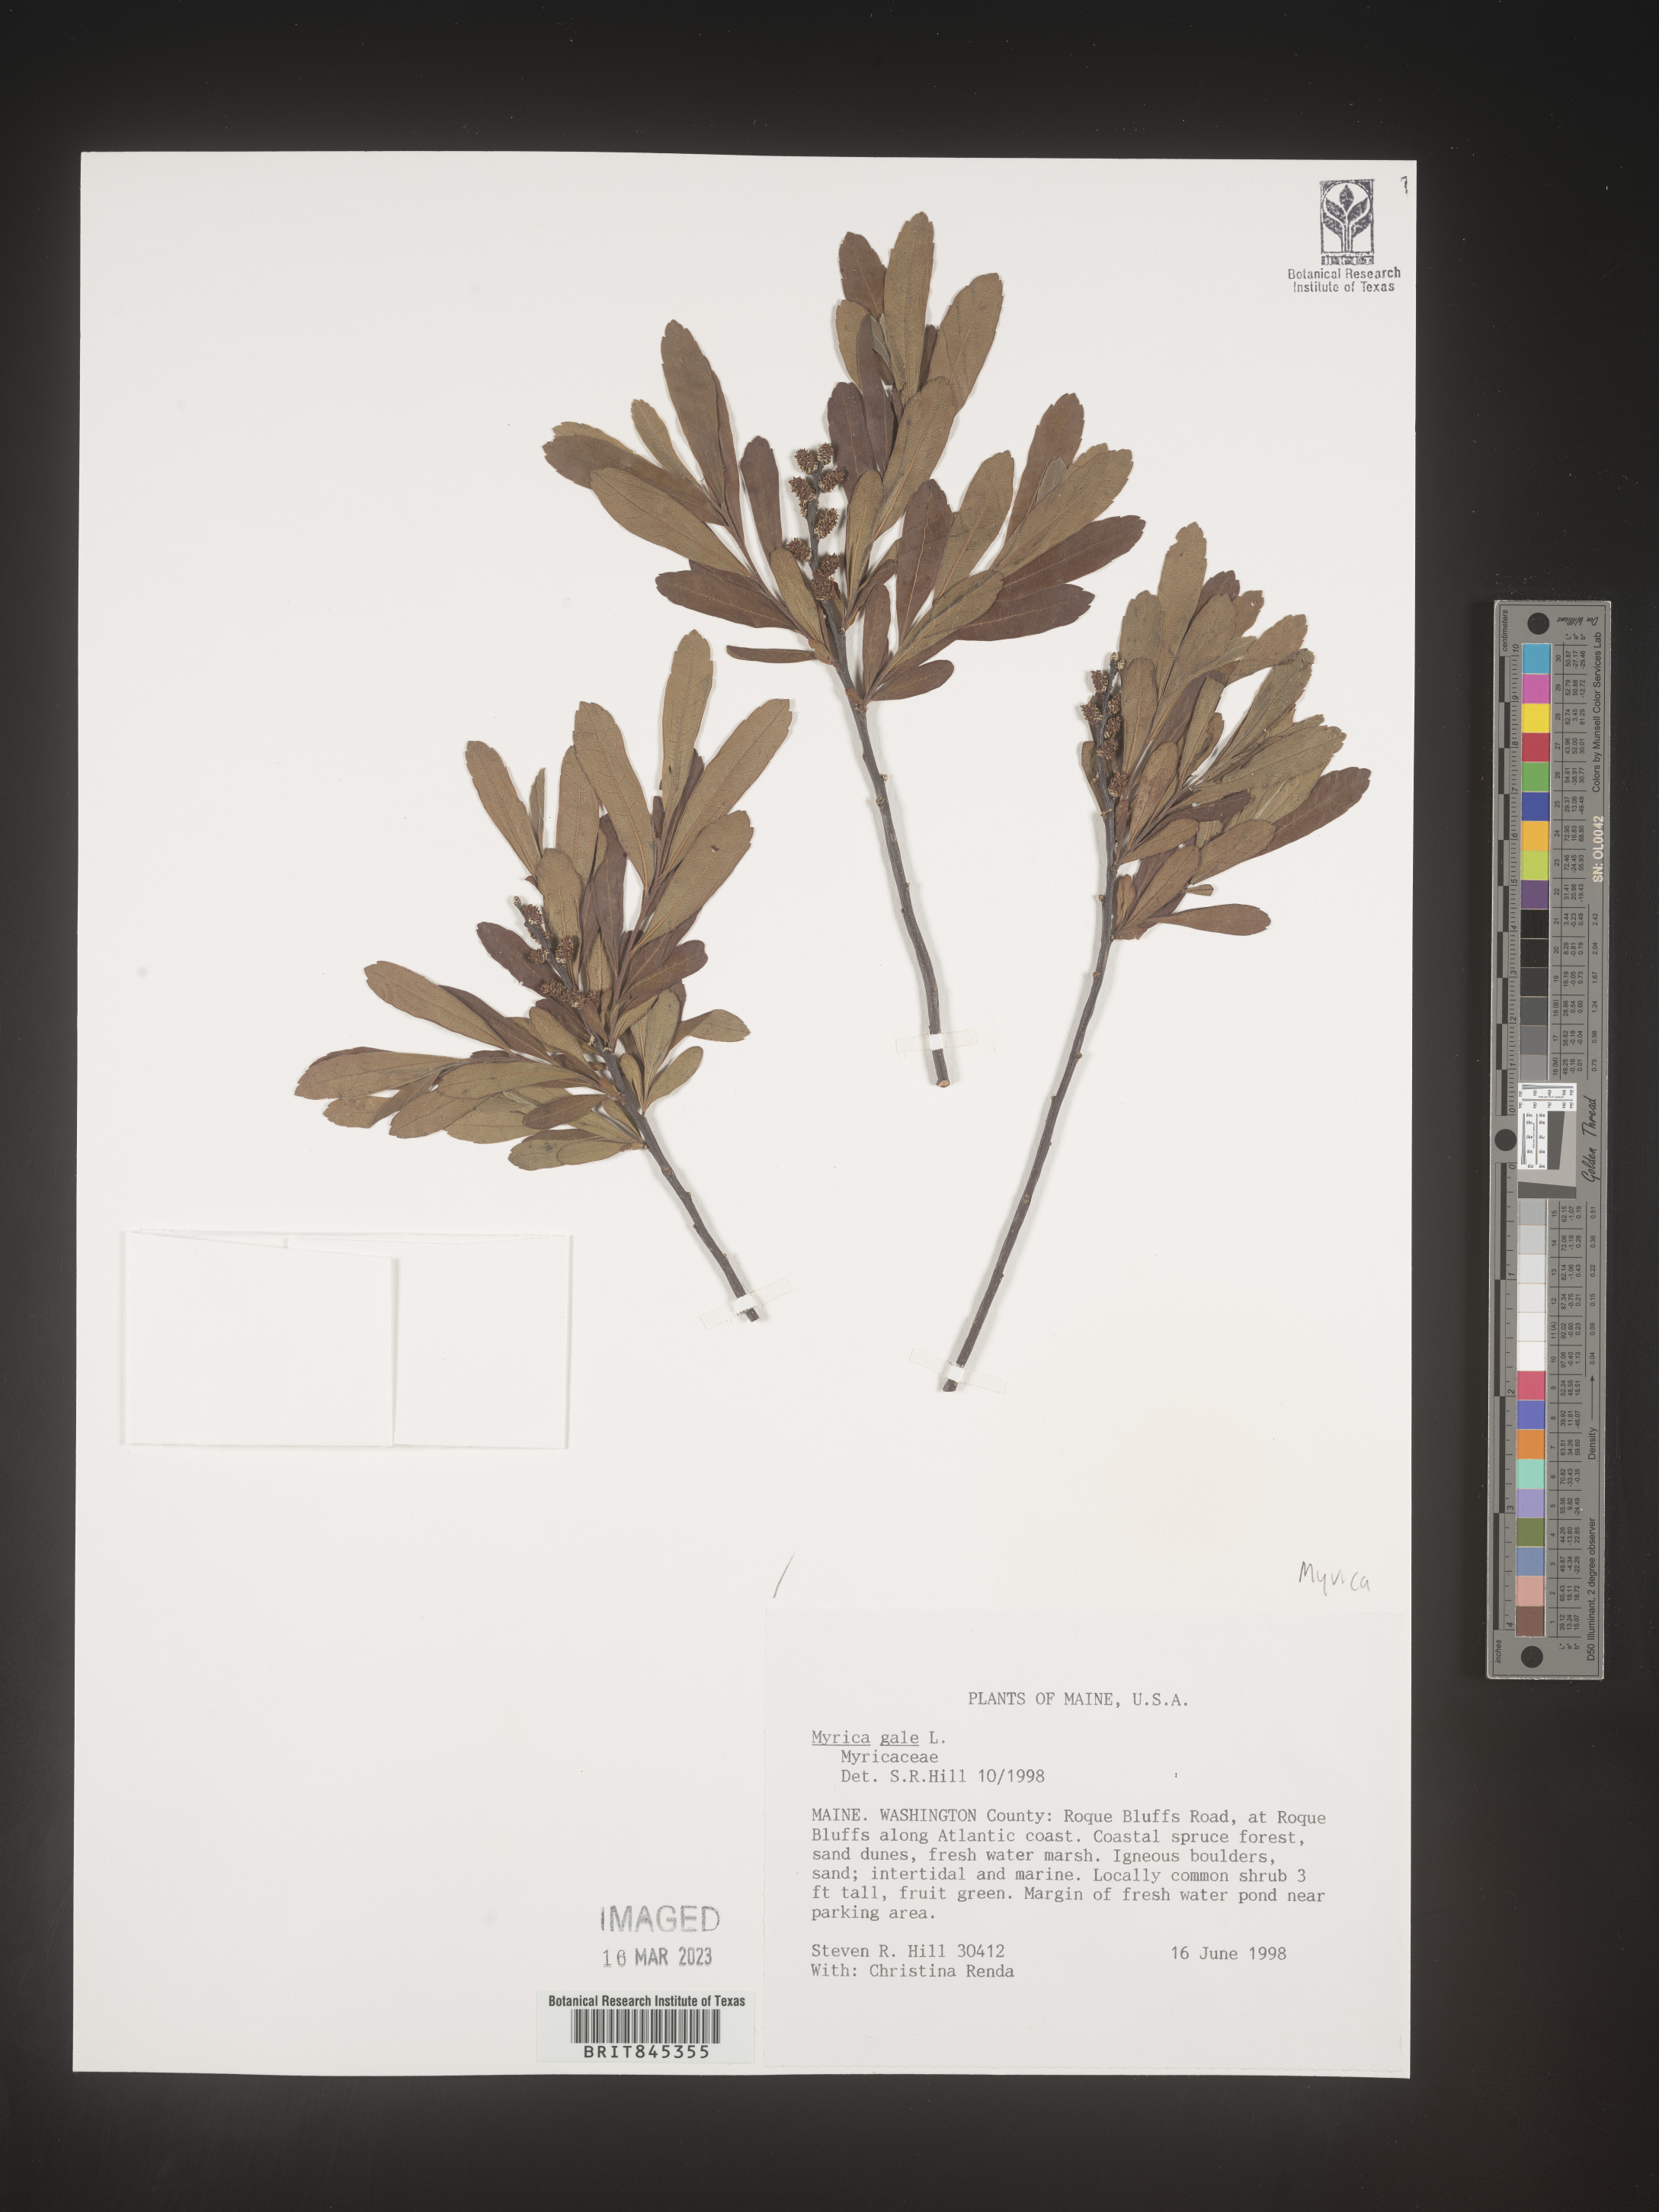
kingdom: Plantae
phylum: Tracheophyta
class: Magnoliopsida
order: Fagales
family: Myricaceae
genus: Myrica
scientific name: Myrica gale
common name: Sweet gale
